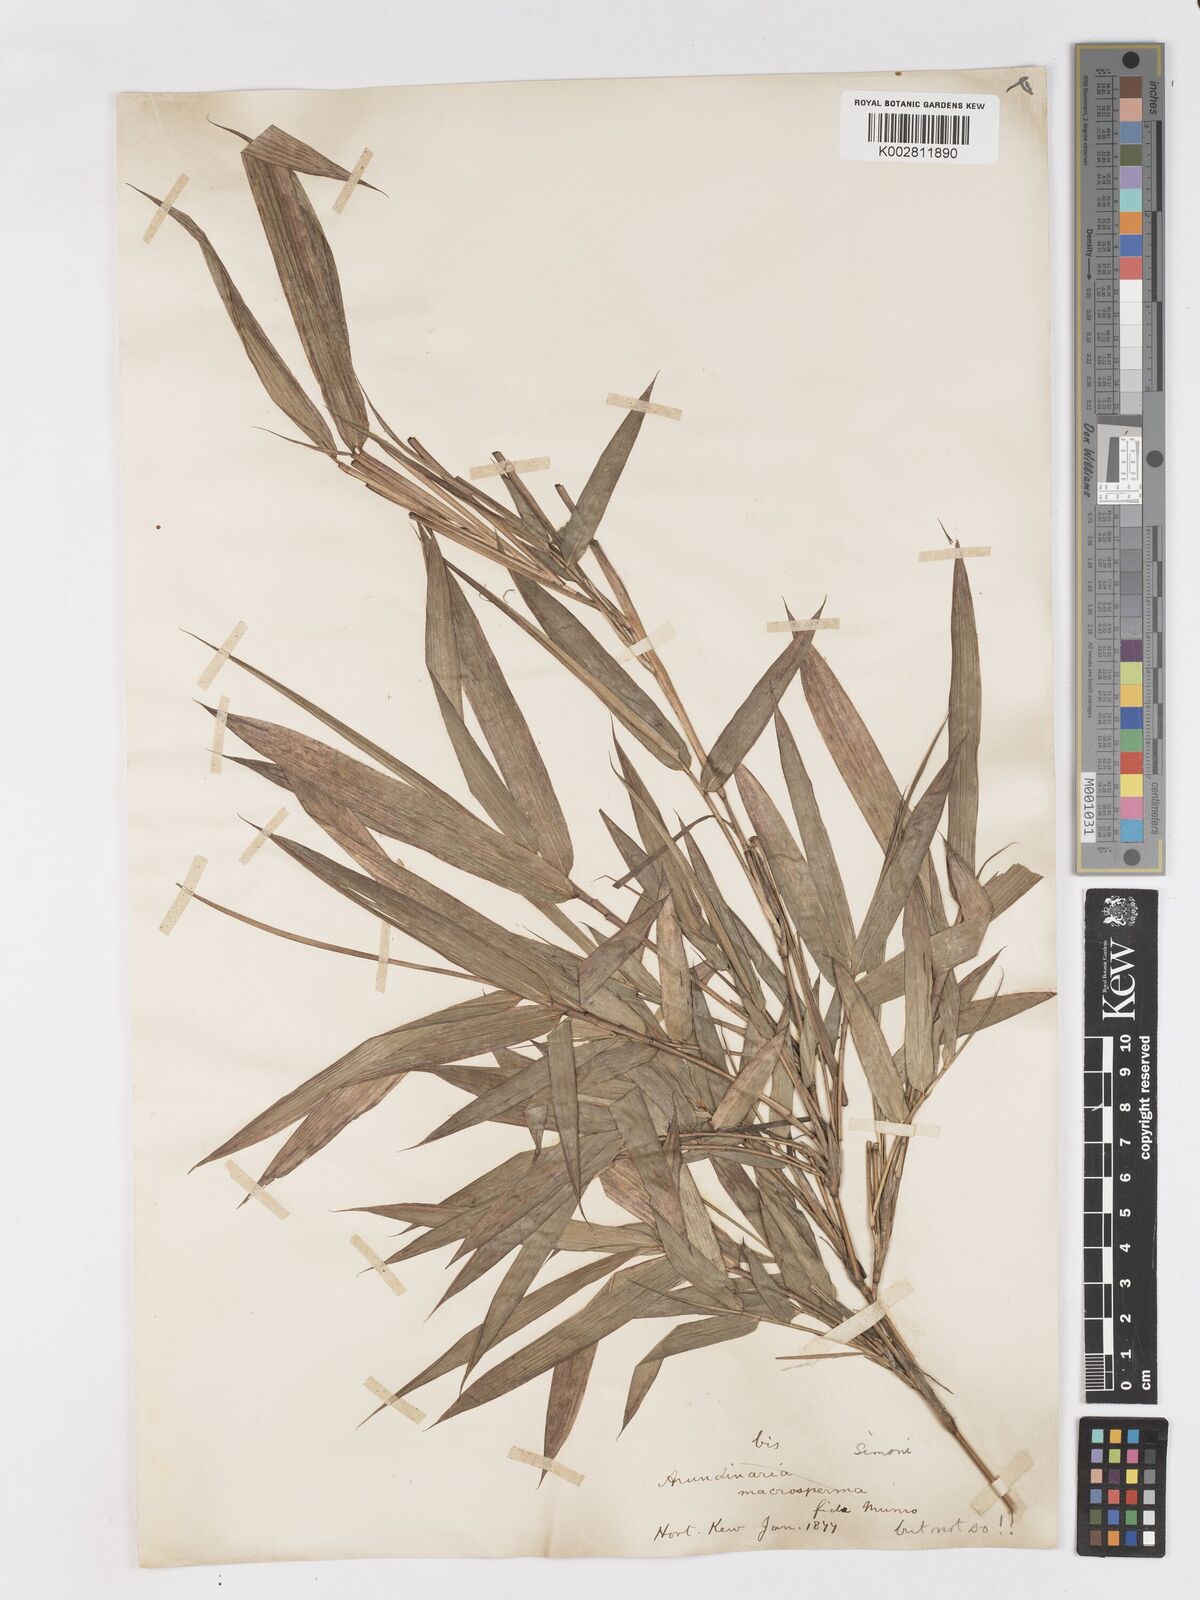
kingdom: Plantae
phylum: Tracheophyta
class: Liliopsida
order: Poales
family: Poaceae
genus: Pleioblastus
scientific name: Pleioblastus simonii
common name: Simon bamboo
